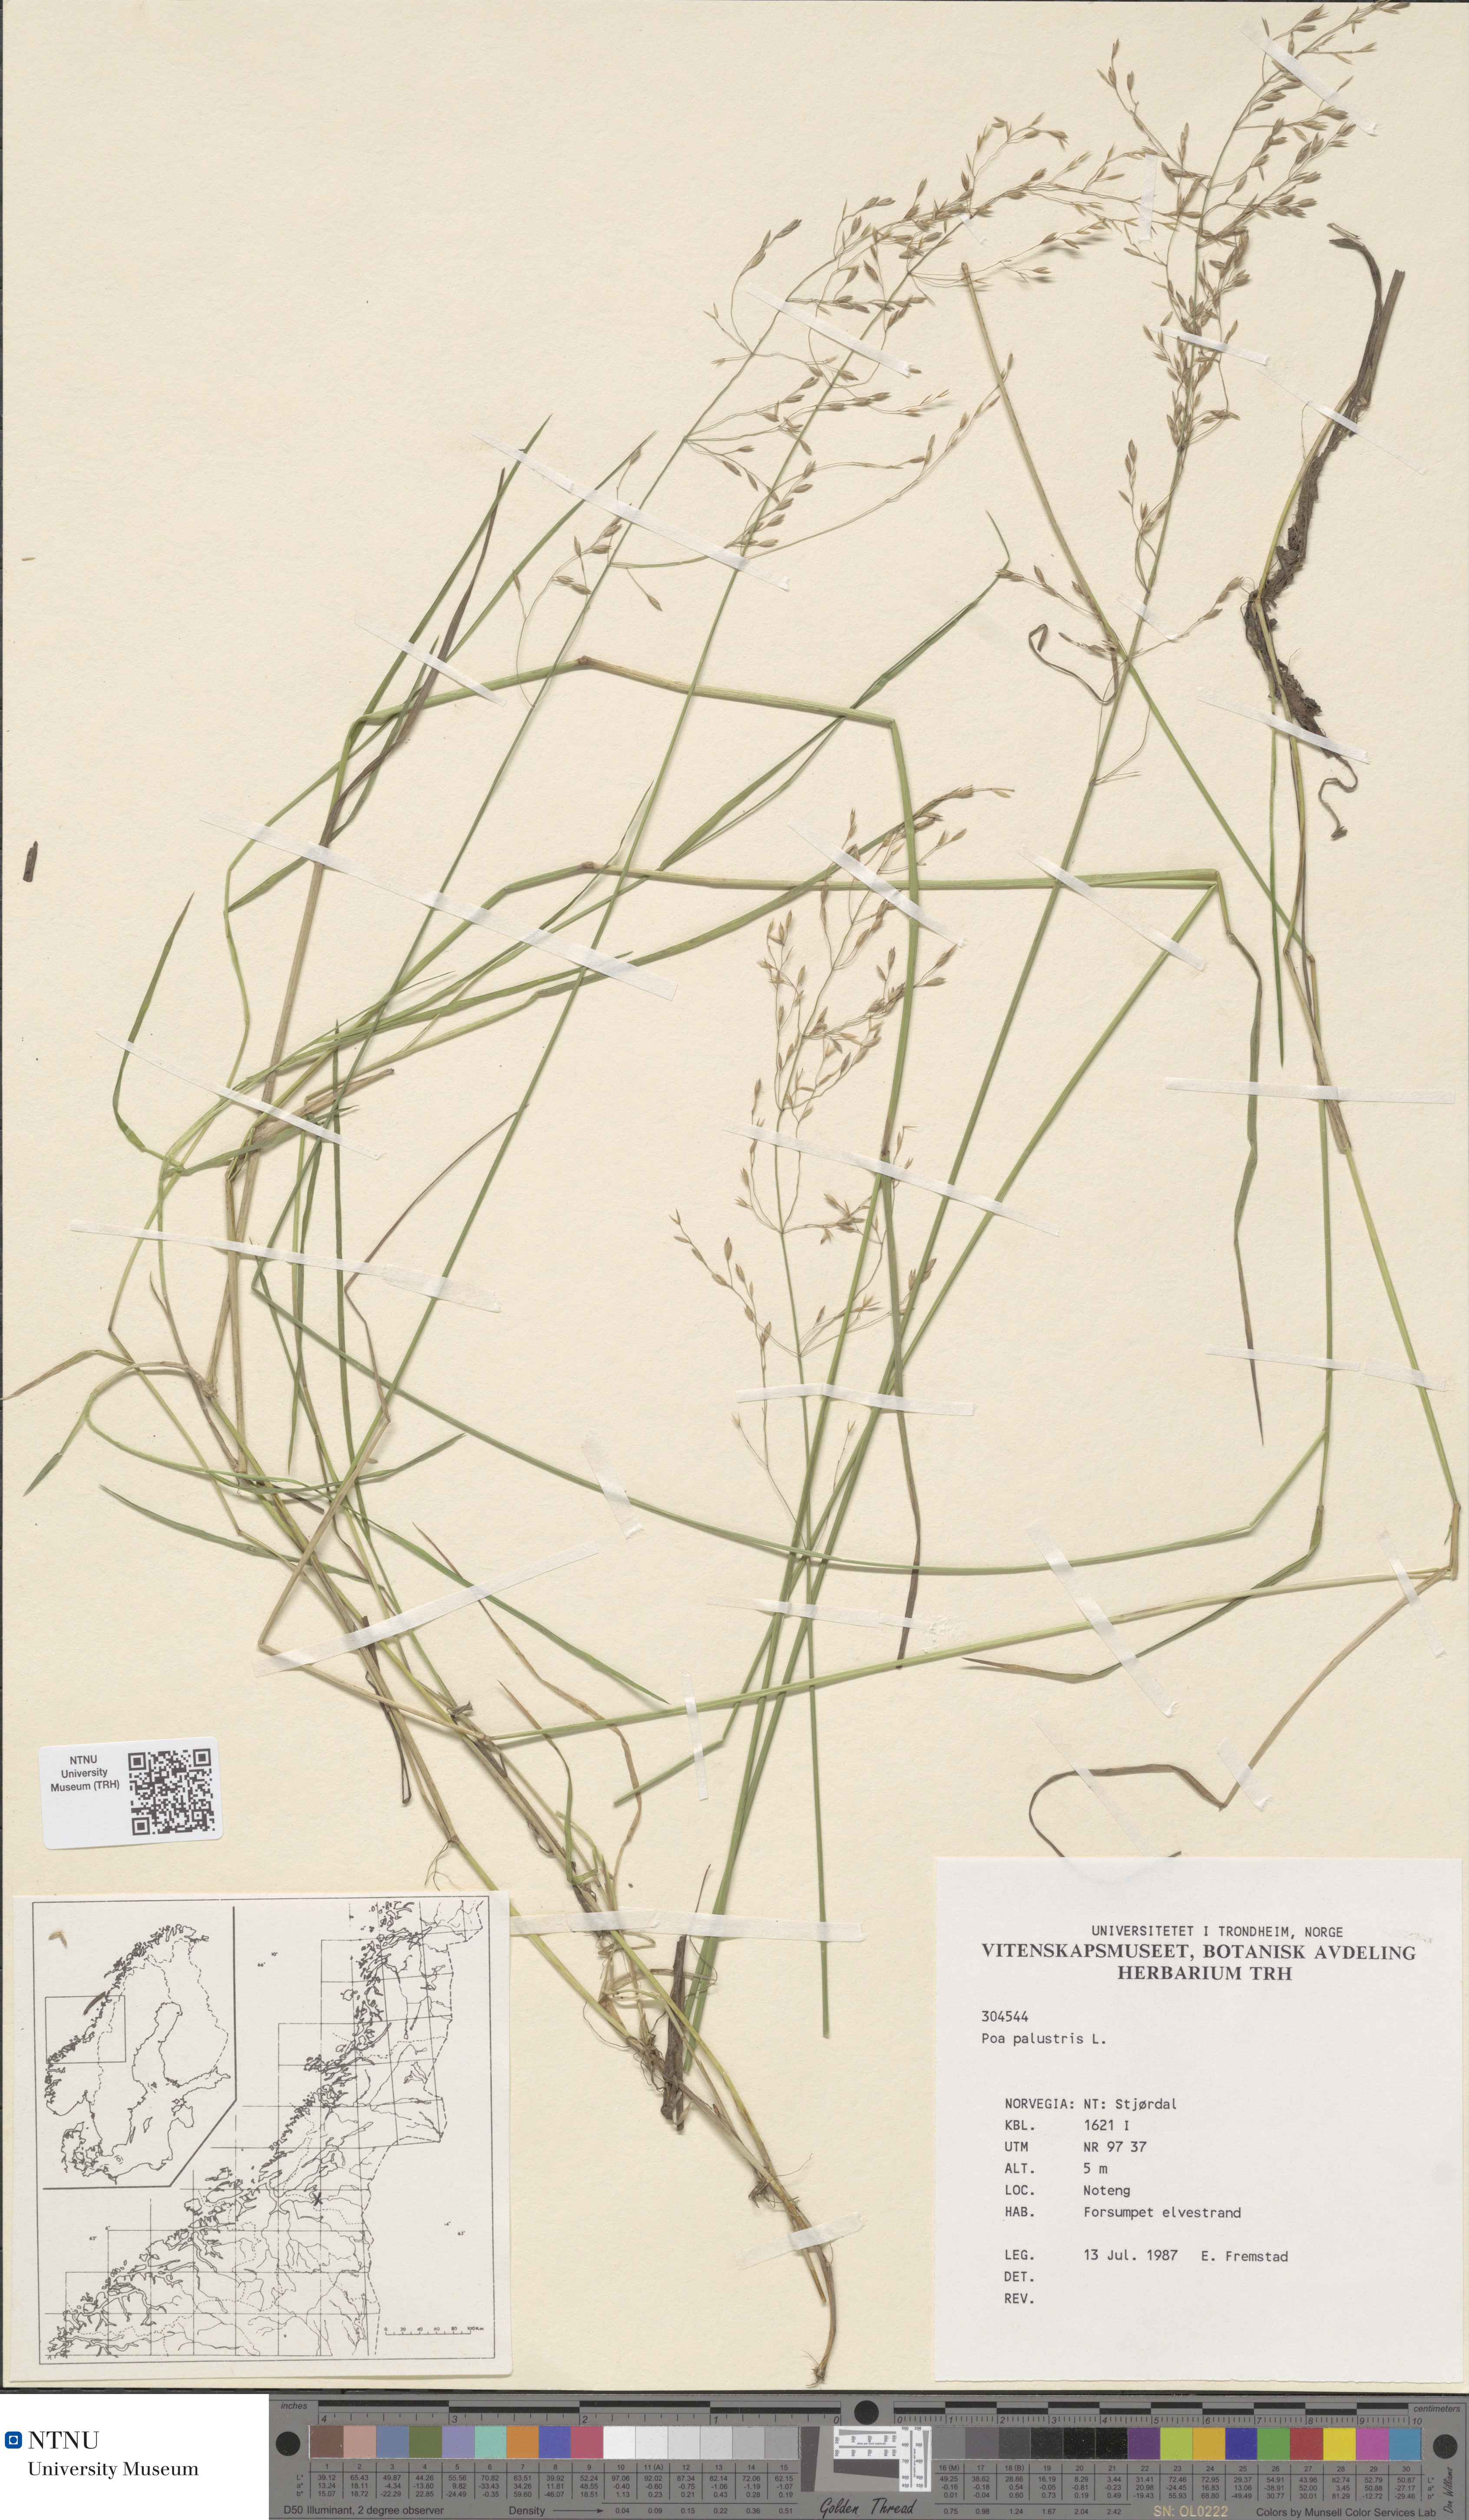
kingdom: Plantae
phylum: Tracheophyta
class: Liliopsida
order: Poales
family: Poaceae
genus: Poa
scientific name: Poa palustris
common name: Swamp meadow-grass
